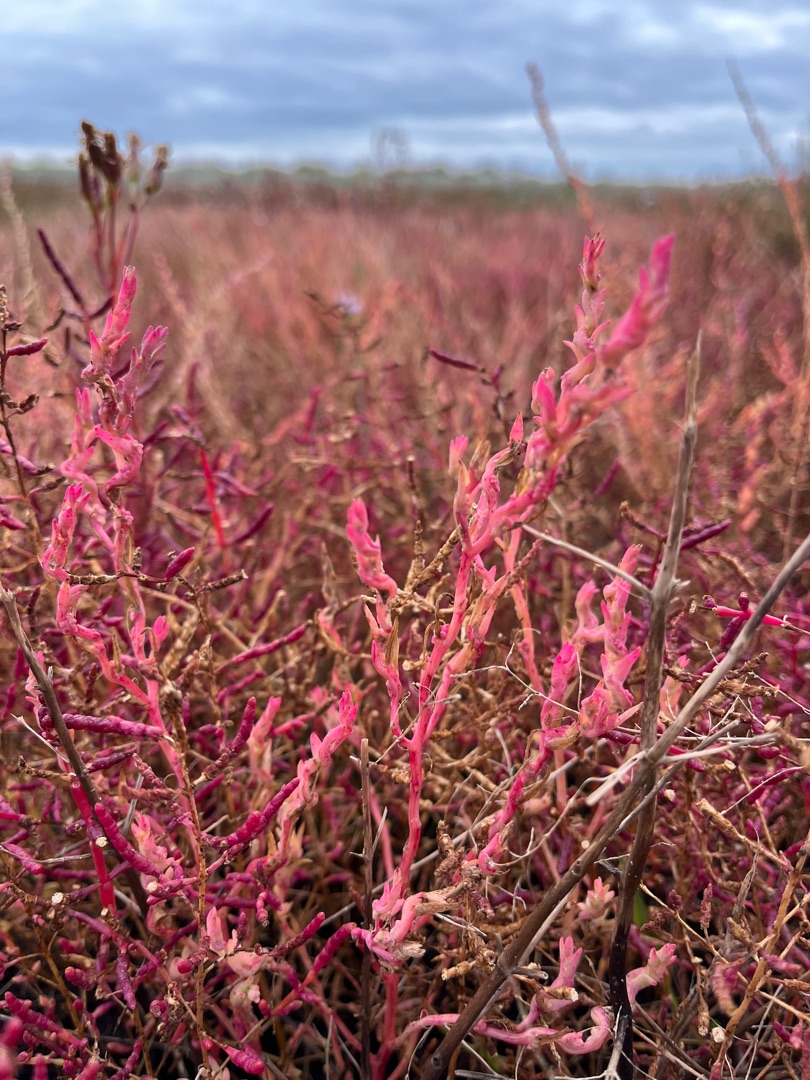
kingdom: Plantae
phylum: Tracheophyta
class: Magnoliopsida
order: Caryophyllales
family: Amaranthaceae
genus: Spirobassia
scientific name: Spirobassia hirsuta
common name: Tangurt
